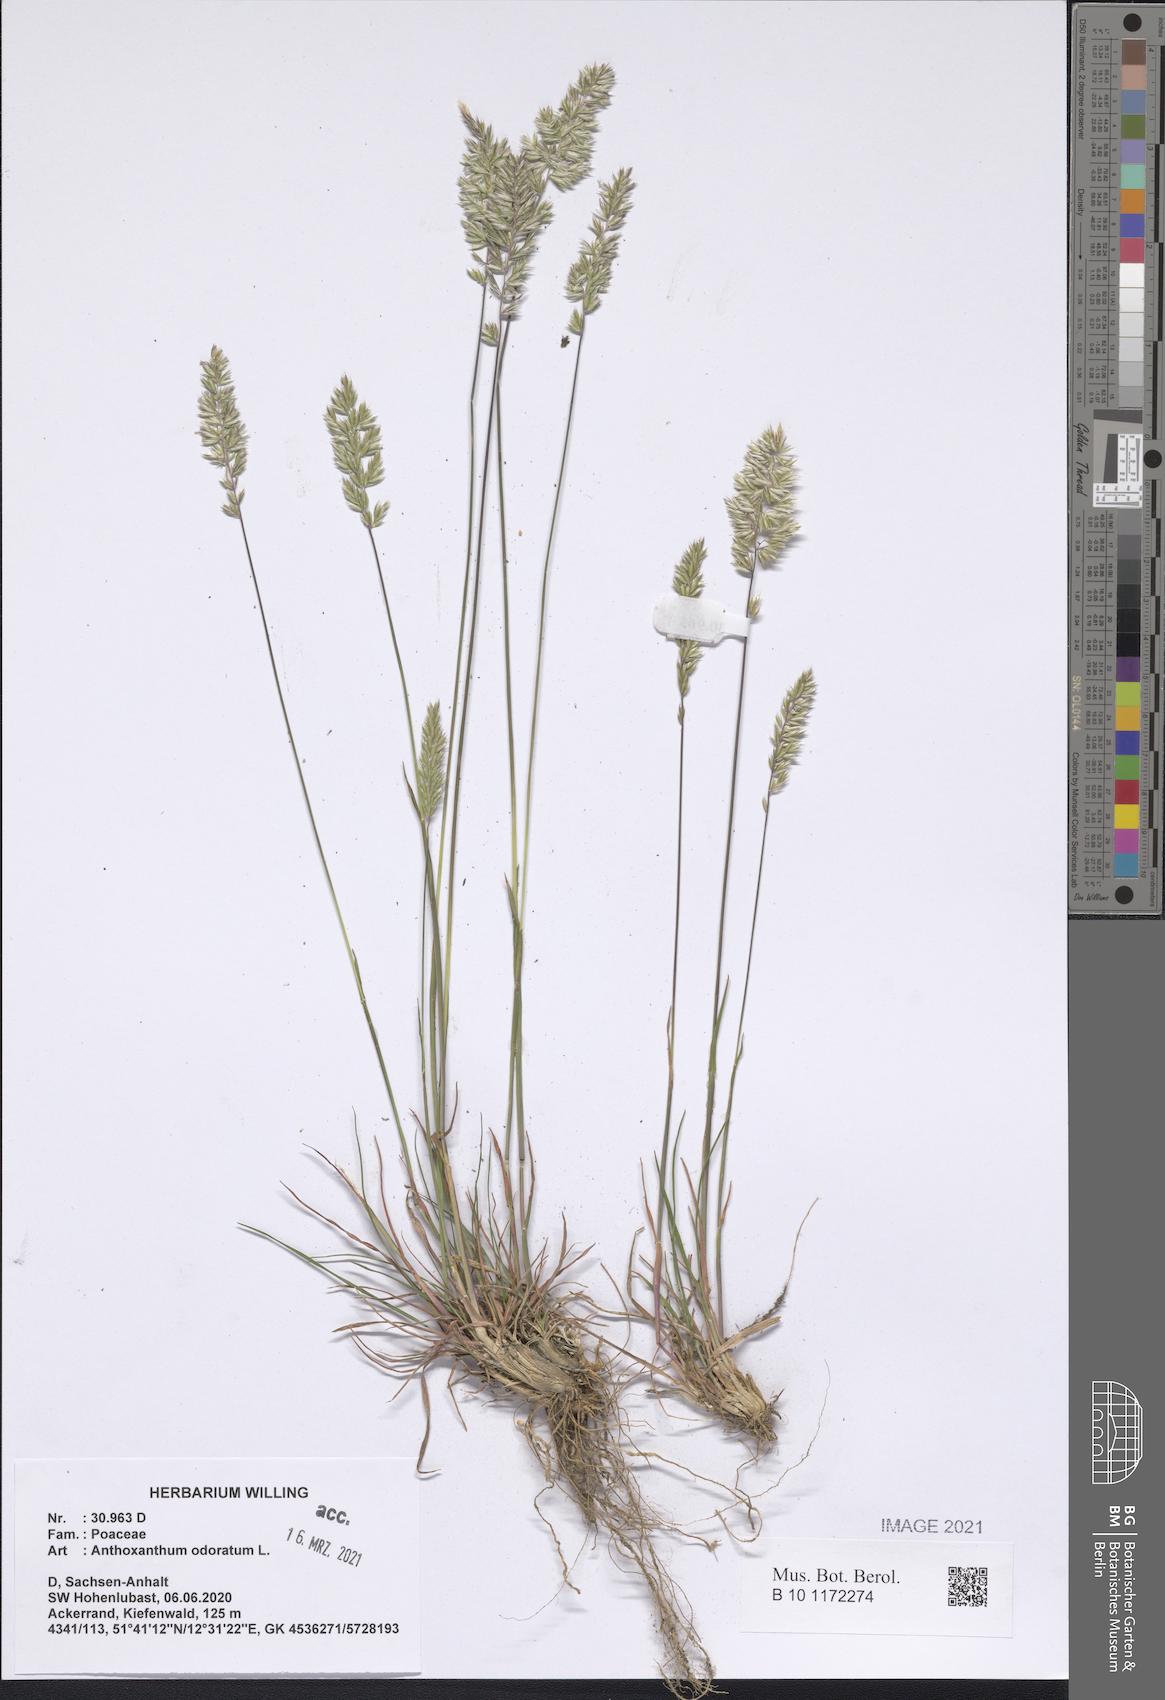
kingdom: Plantae
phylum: Tracheophyta
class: Liliopsida
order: Poales
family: Poaceae
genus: Anthoxanthum
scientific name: Anthoxanthum odoratum
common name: Sweet vernalgrass
